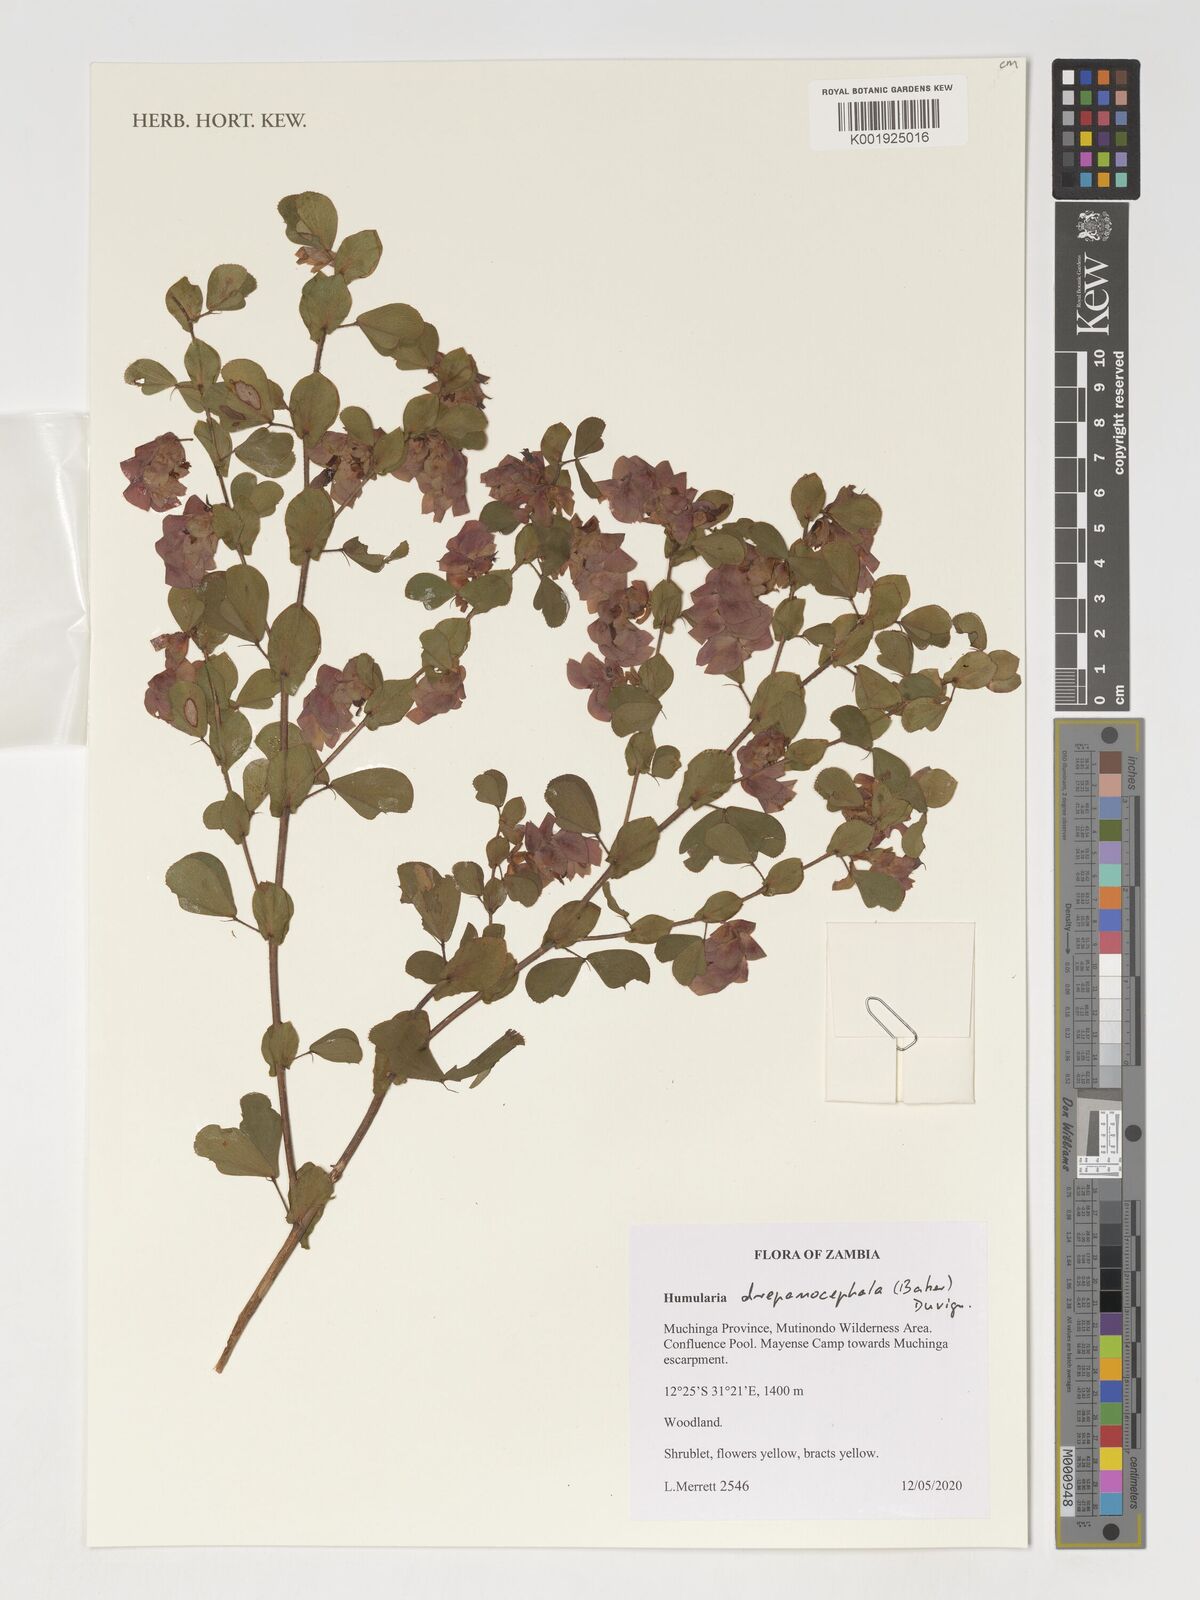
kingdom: Plantae
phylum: Tracheophyta
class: Magnoliopsida
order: Fabales
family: Fabaceae
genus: Humularia
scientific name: Humularia drepanocephala
